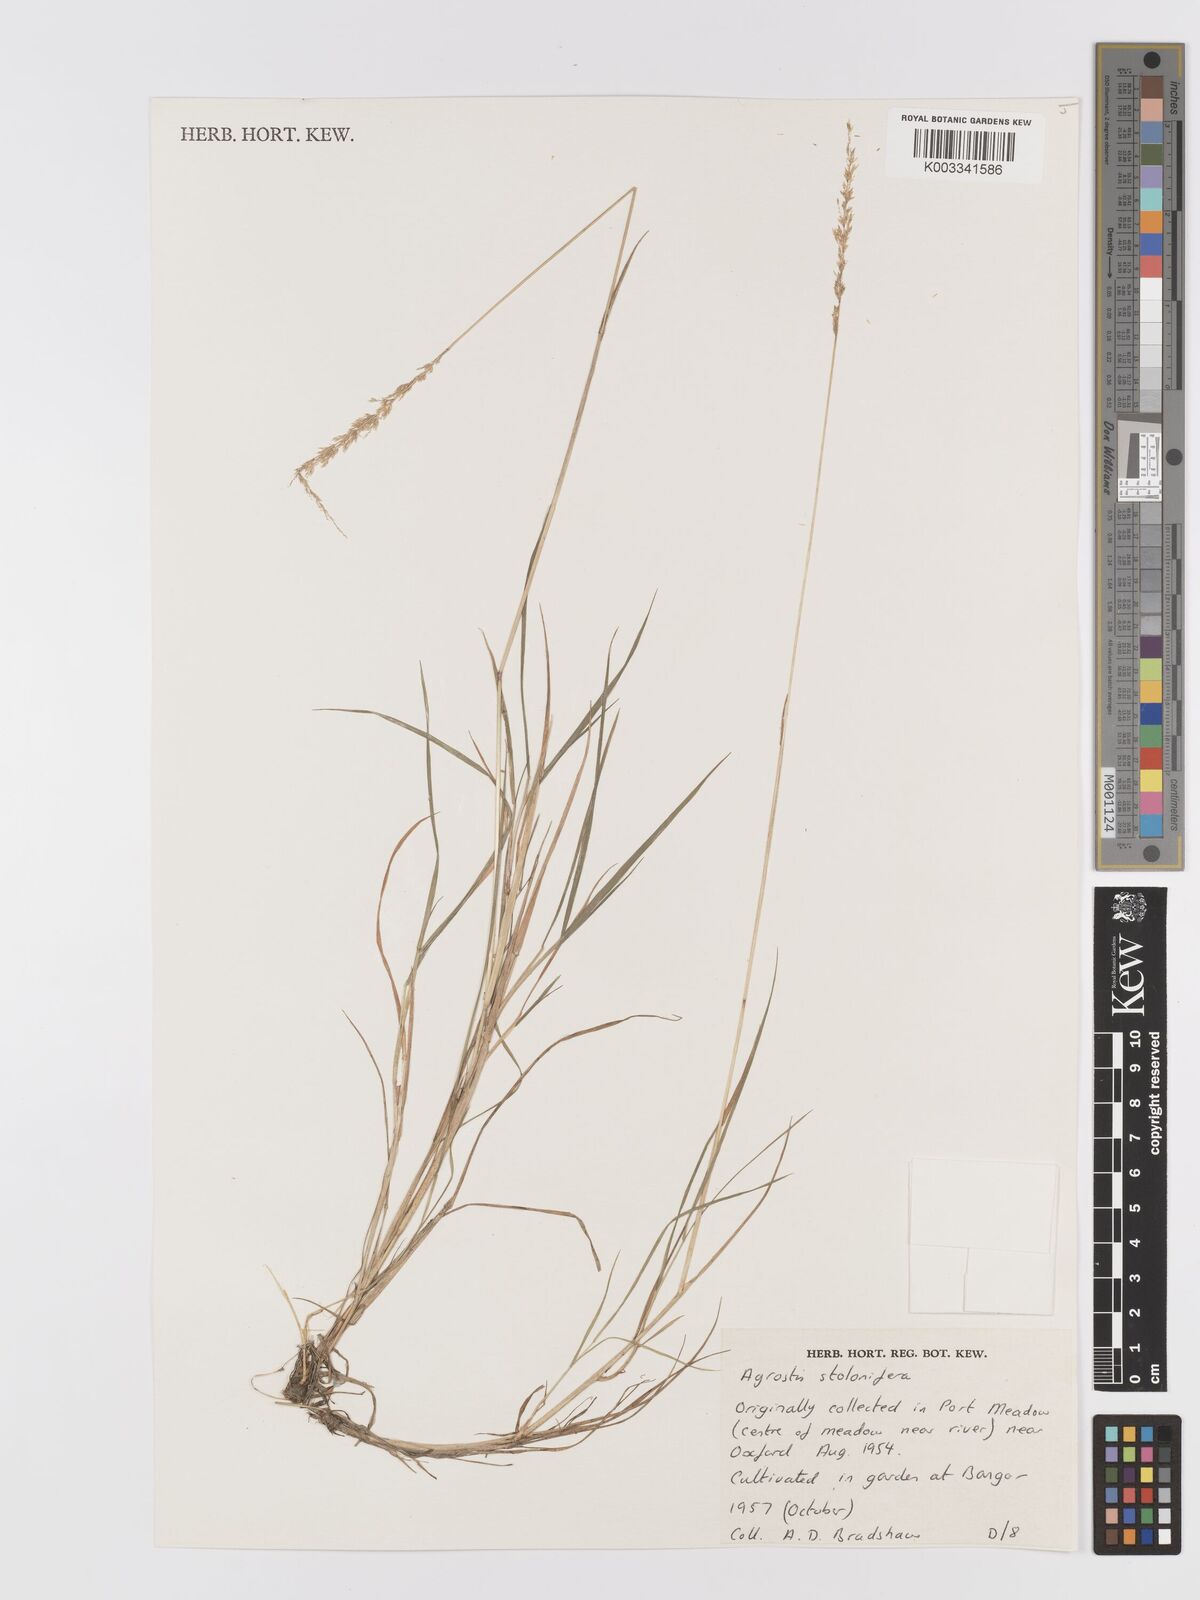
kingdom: Plantae
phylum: Tracheophyta
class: Liliopsida
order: Poales
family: Poaceae
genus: Agrostis
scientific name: Agrostis stolonifera
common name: Creeping bentgrass
